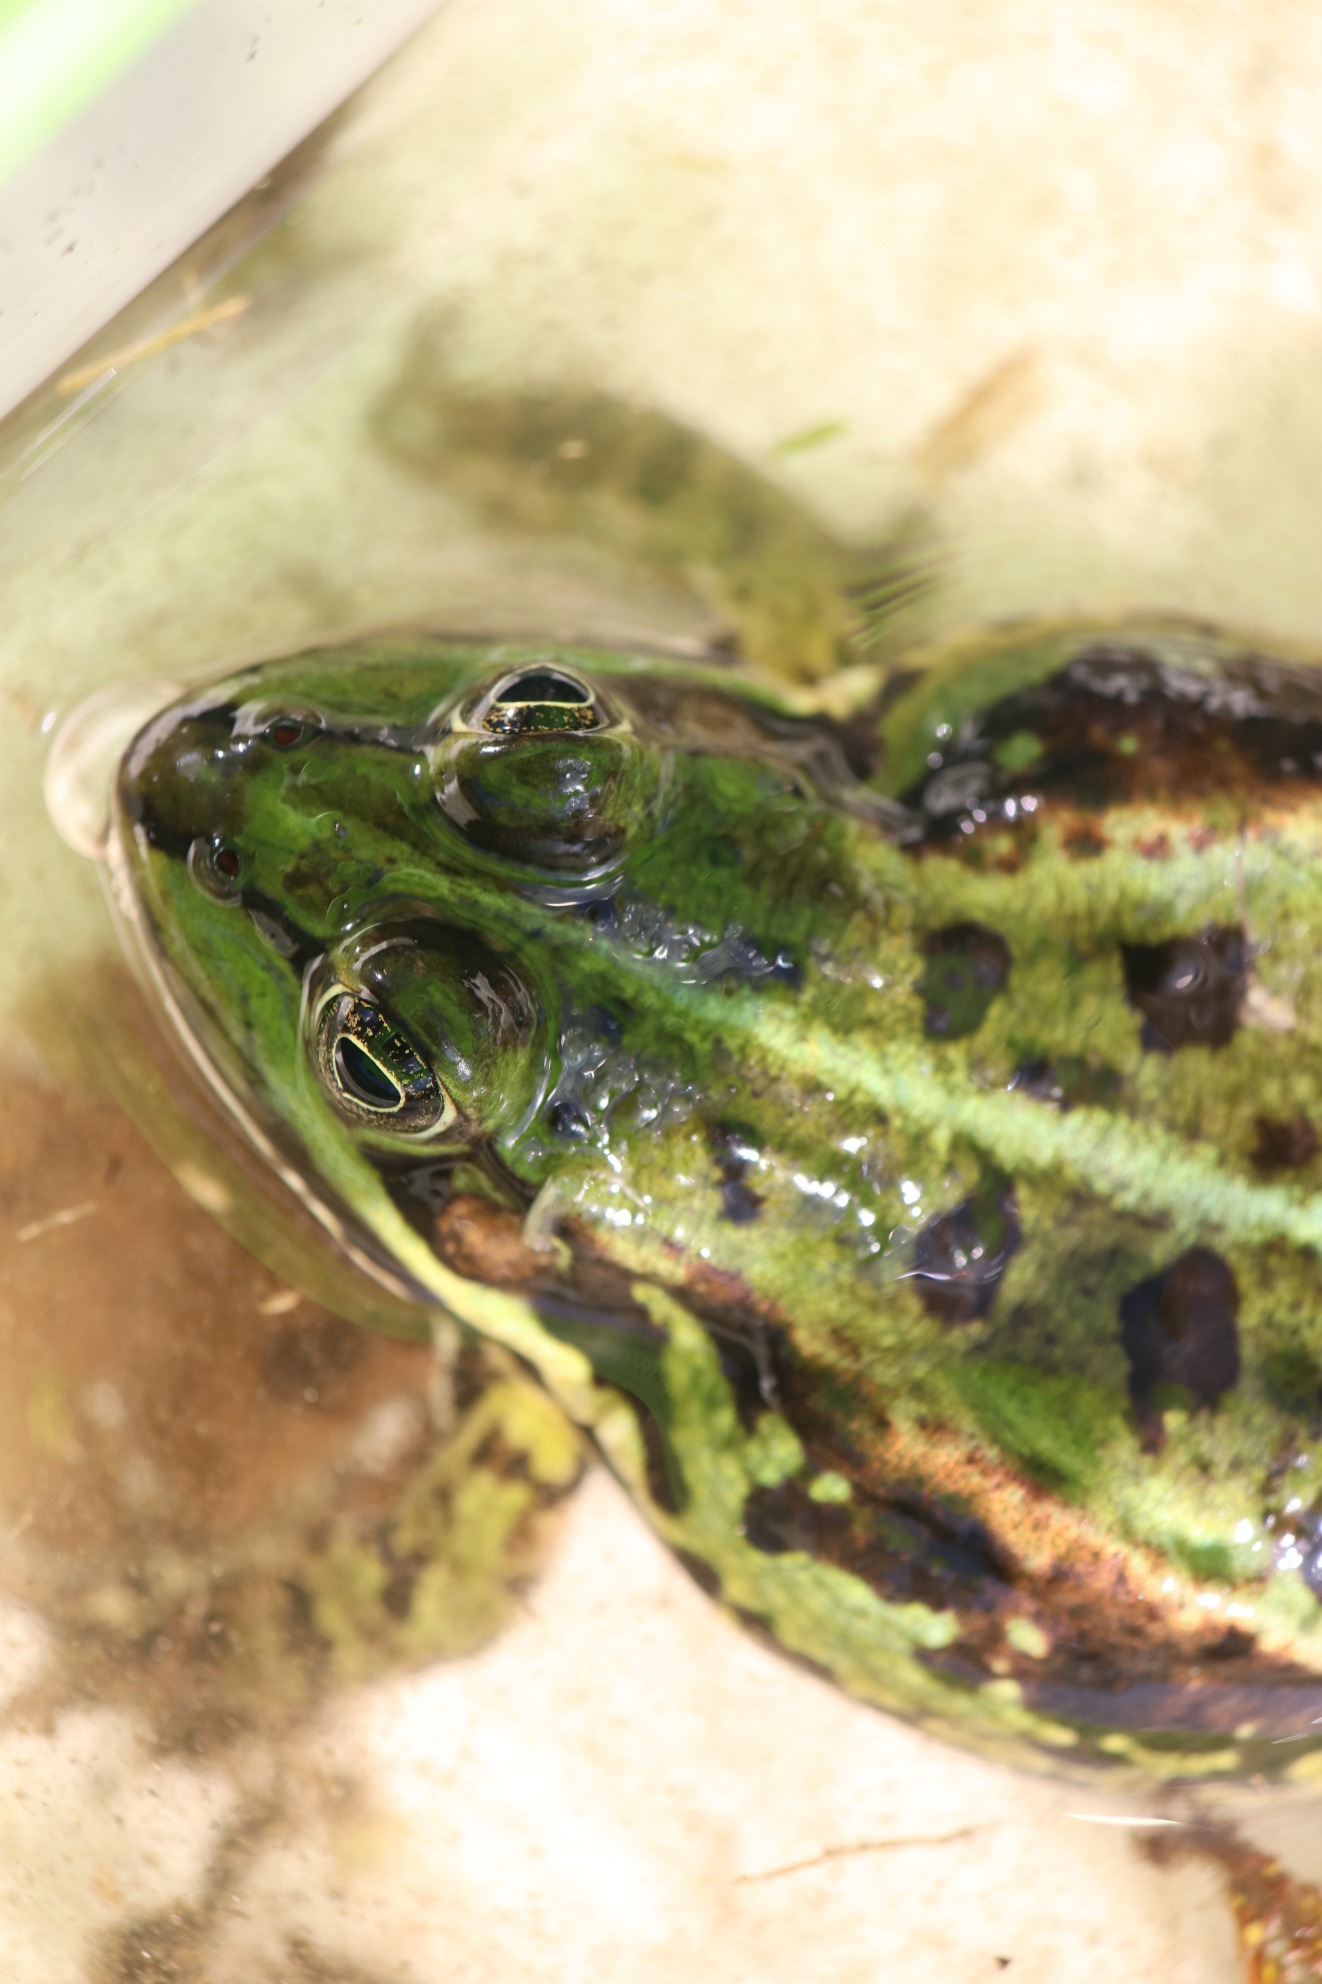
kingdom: Animalia
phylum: Chordata
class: Amphibia
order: Anura
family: Ranidae
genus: Pelophylax
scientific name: Pelophylax lessonae
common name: Grøn frø
